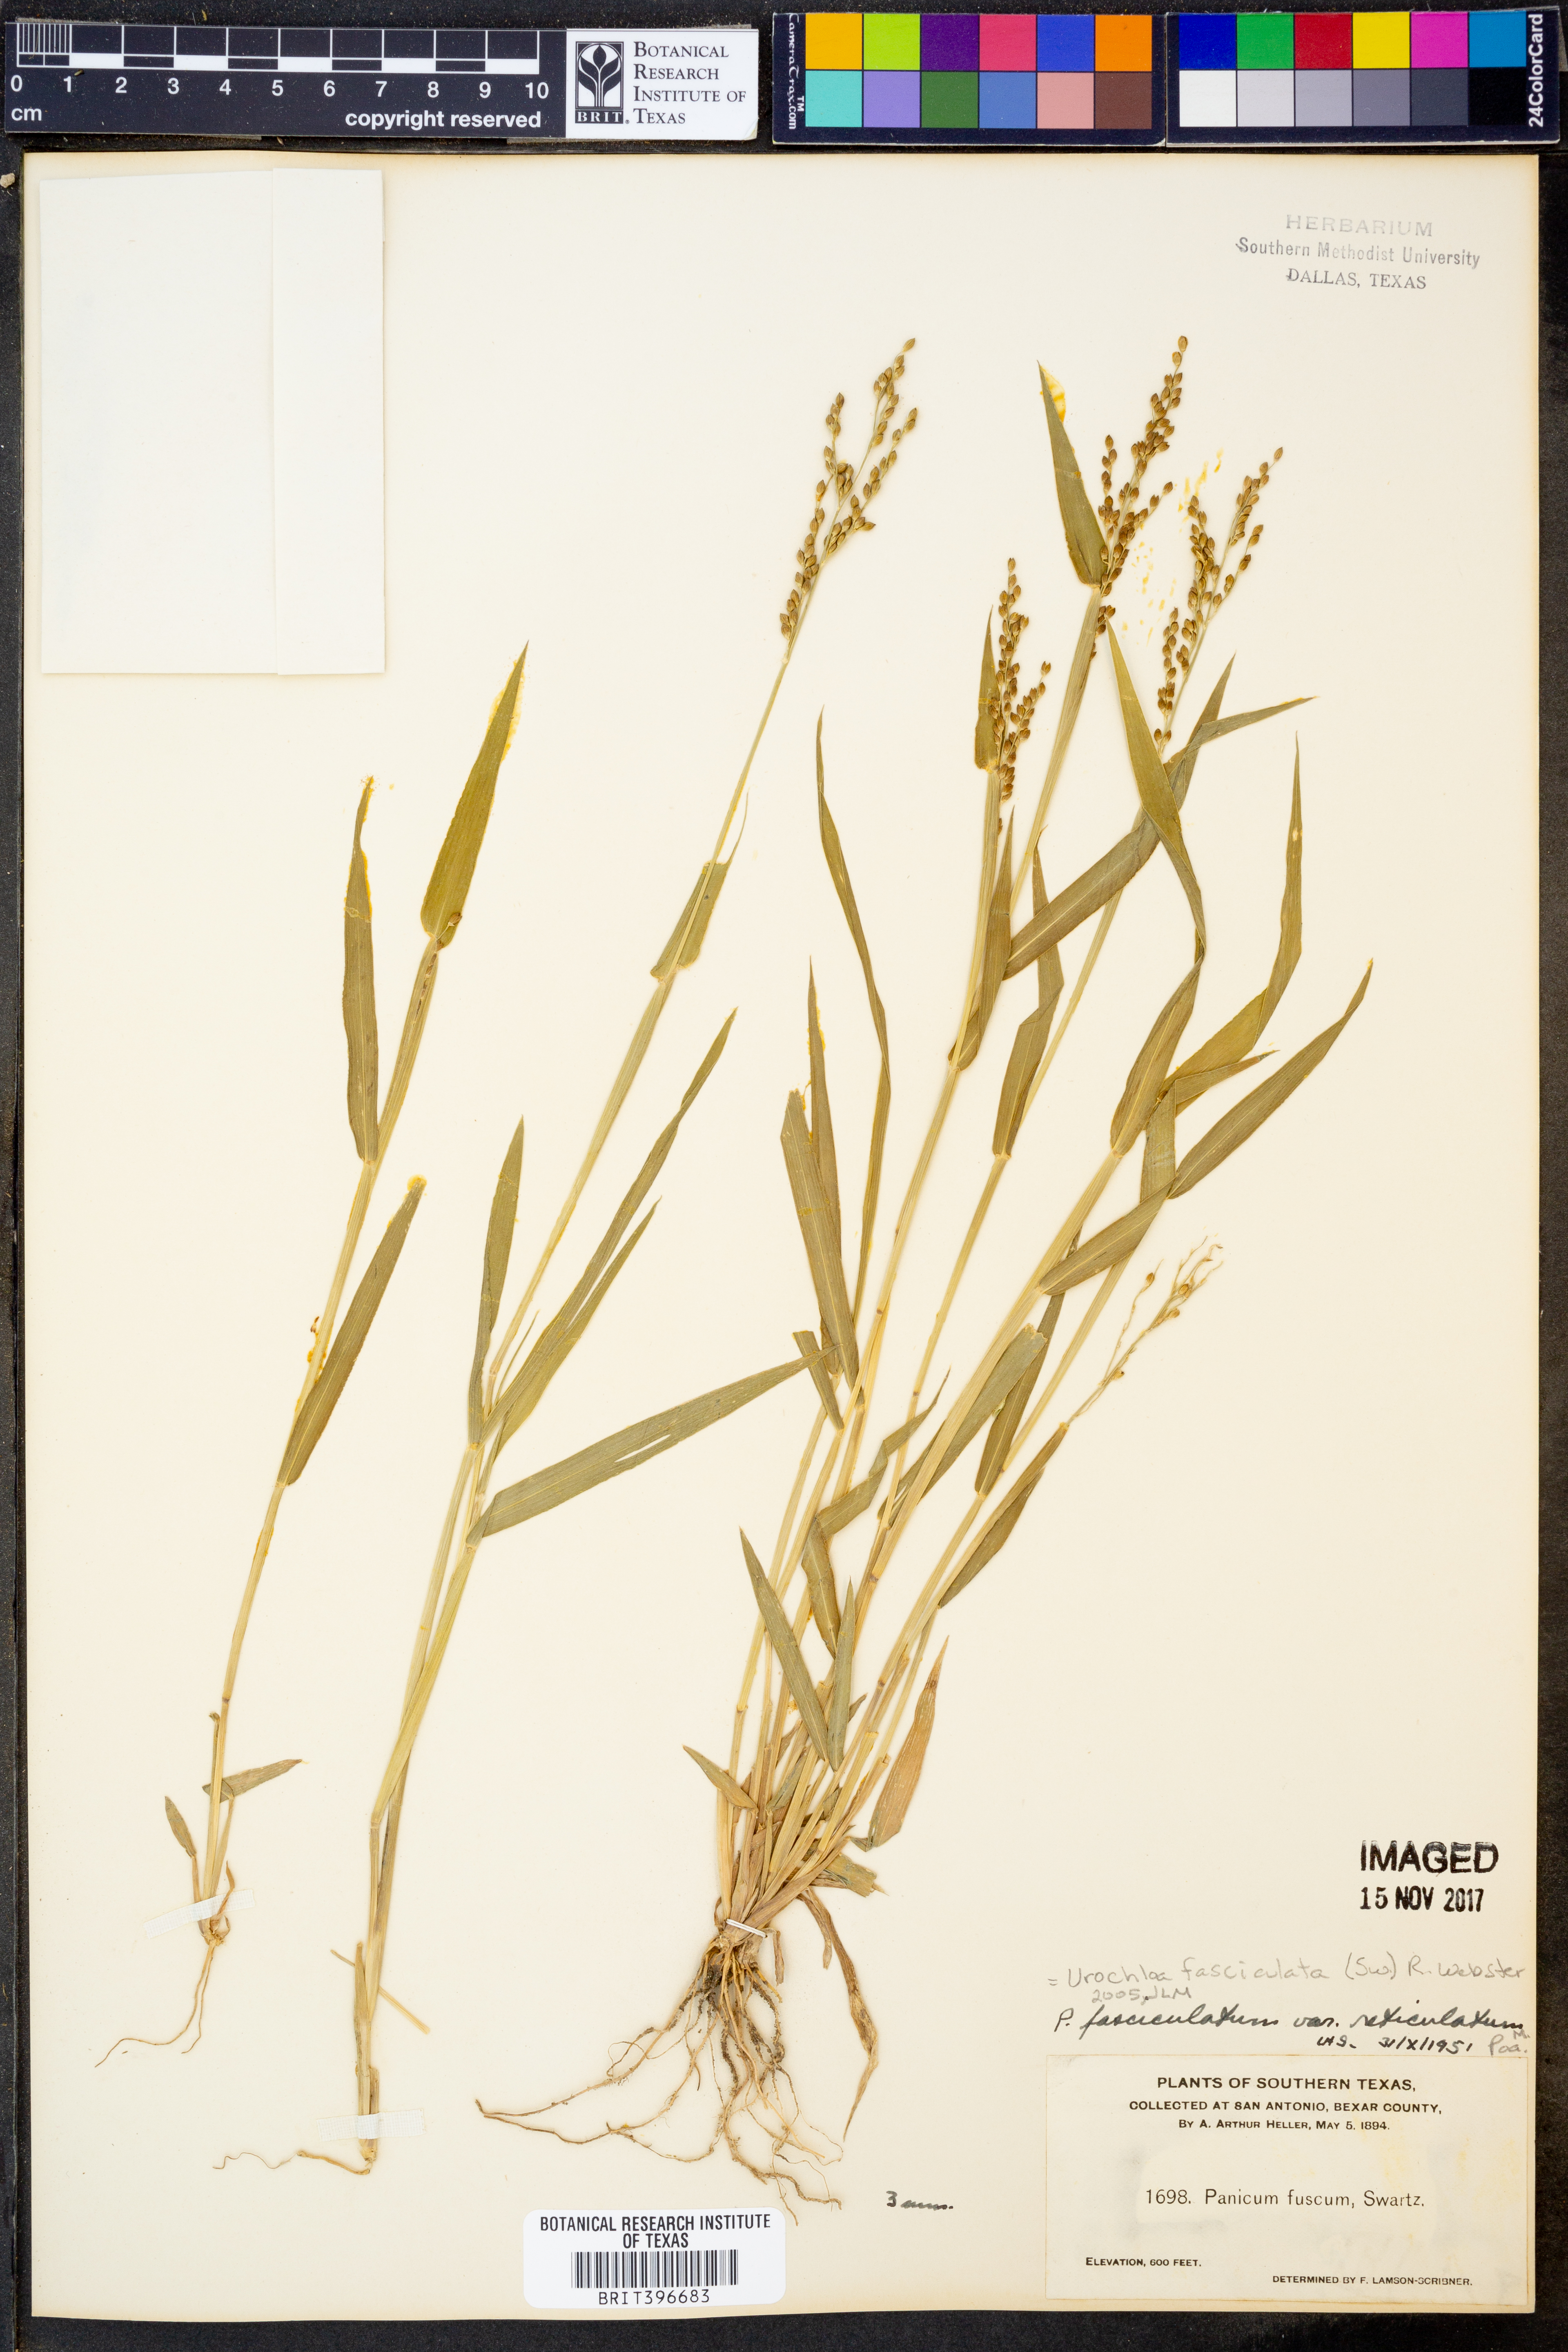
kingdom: Plantae
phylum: Tracheophyta
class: Liliopsida
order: Poales
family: Poaceae
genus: Urochloa
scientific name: Urochloa fusca
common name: Browntop signal grass
